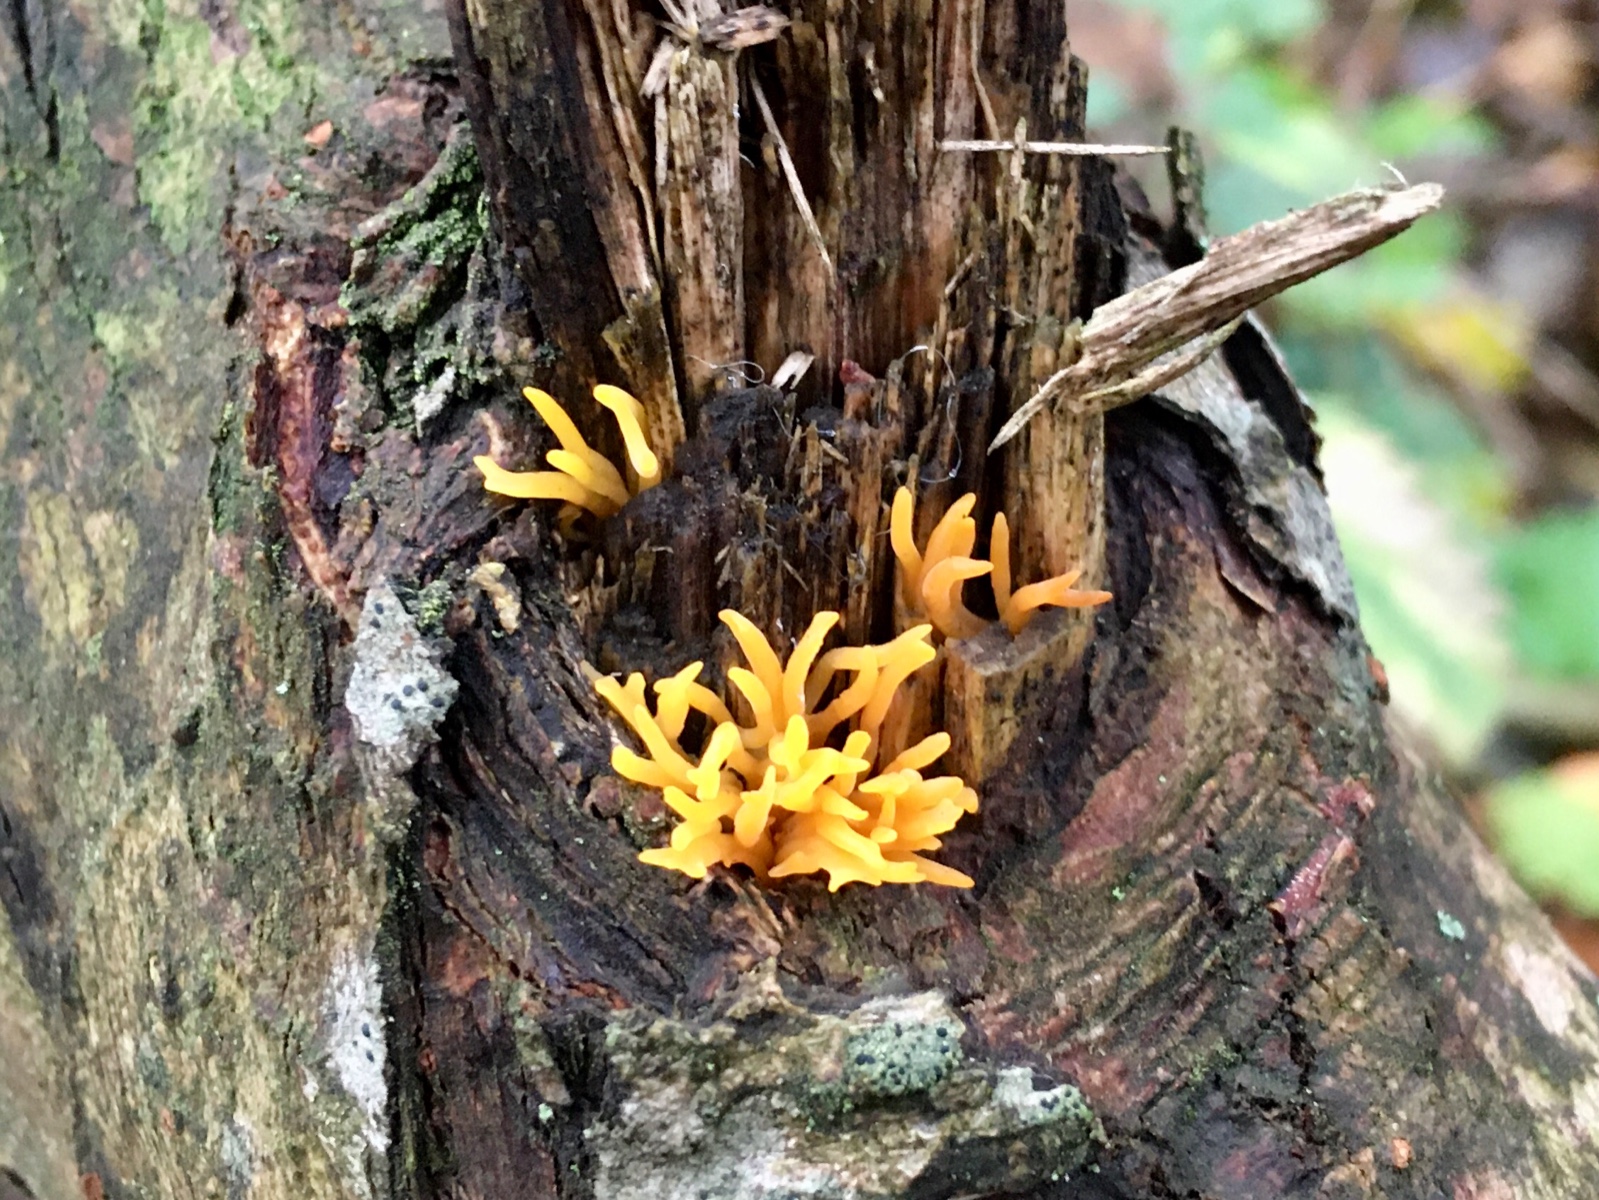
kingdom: Fungi
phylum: Basidiomycota
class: Dacrymycetes
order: Dacrymycetales
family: Dacrymycetaceae
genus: Calocera
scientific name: Calocera cornea
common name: liden guldgaffel
